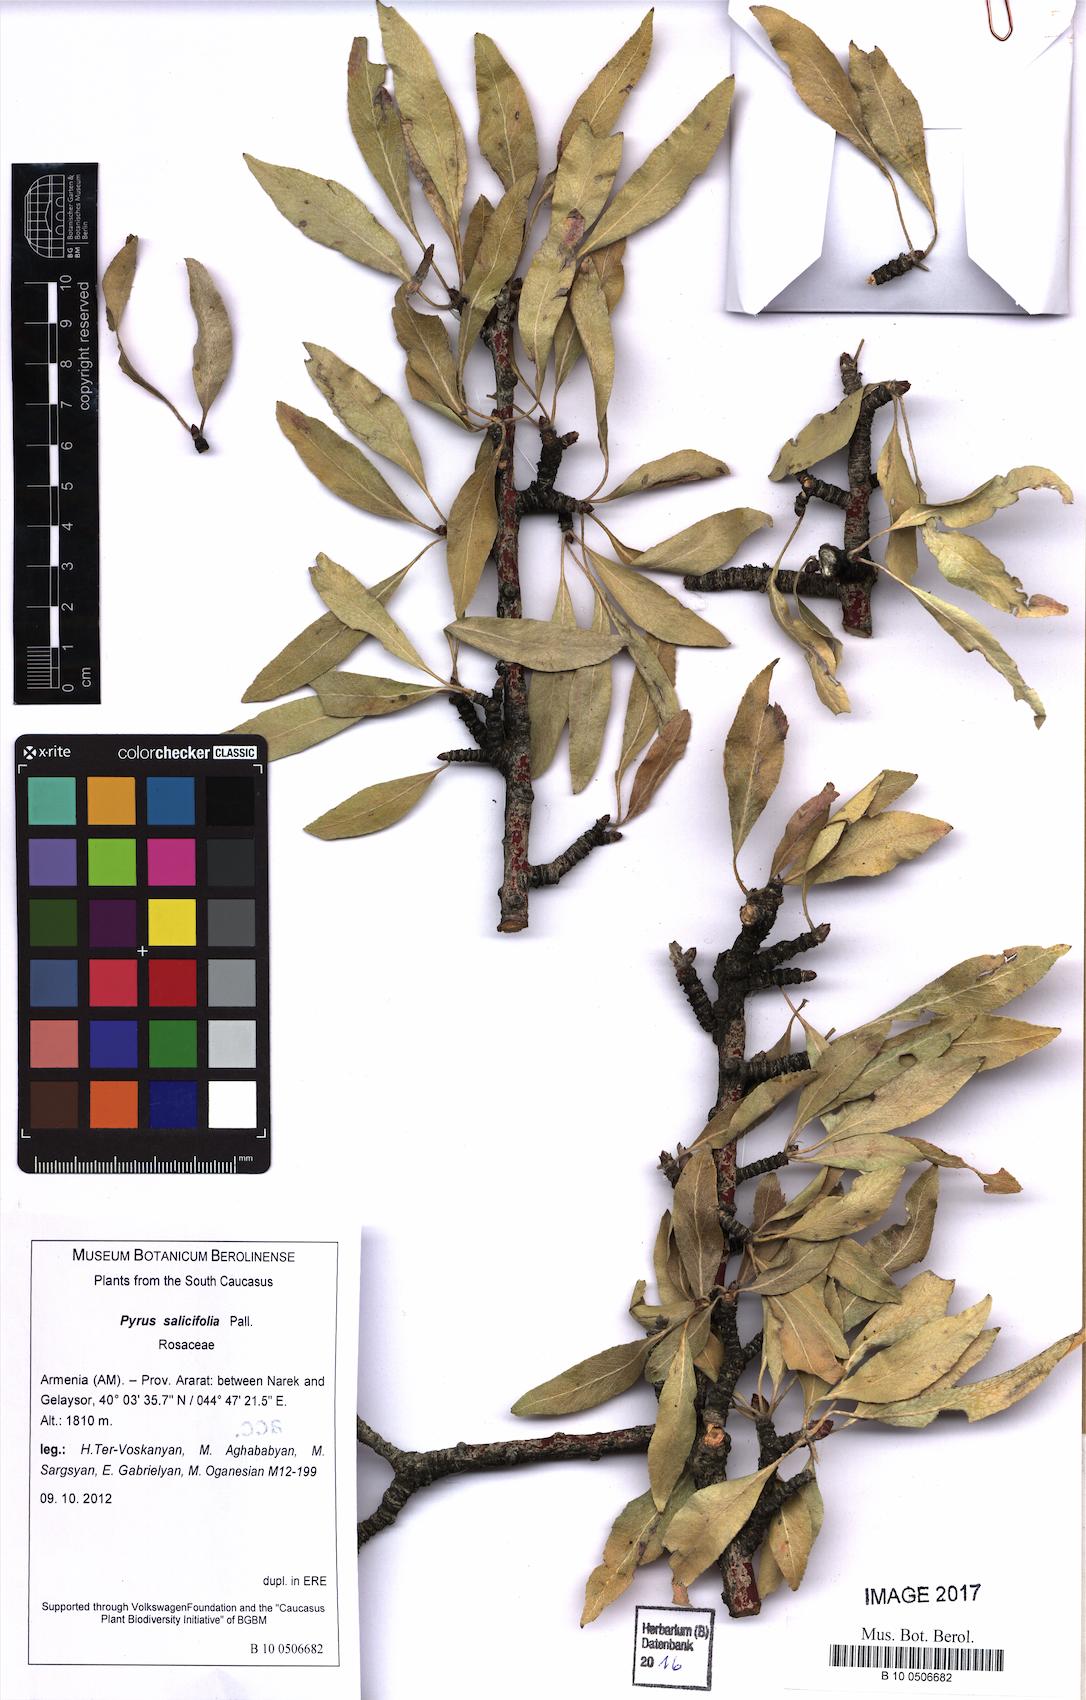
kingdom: Plantae
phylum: Tracheophyta
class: Magnoliopsida
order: Rosales
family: Rosaceae
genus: Pyrus
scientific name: Pyrus salicifolia
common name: Willow-leaved pear
